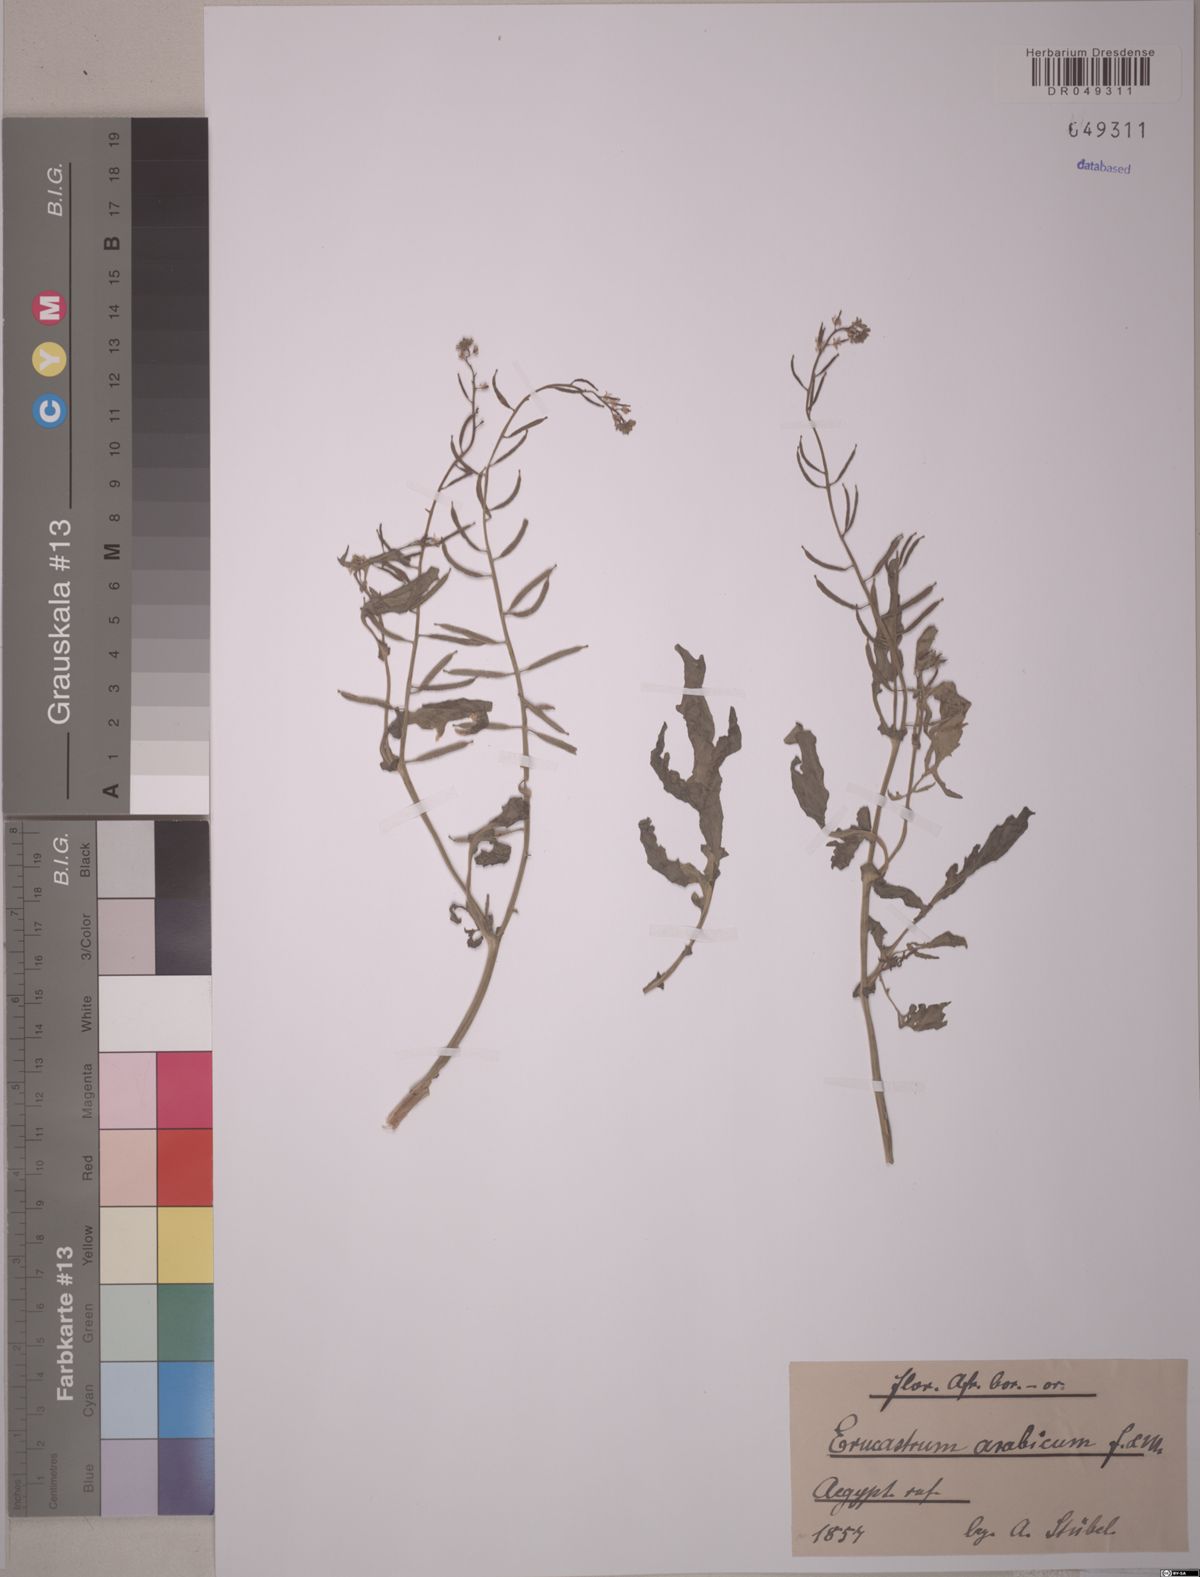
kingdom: Plantae
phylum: Tracheophyta
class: Magnoliopsida
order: Brassicales
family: Brassicaceae
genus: Erucastrum
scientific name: Erucastrum arabicum
